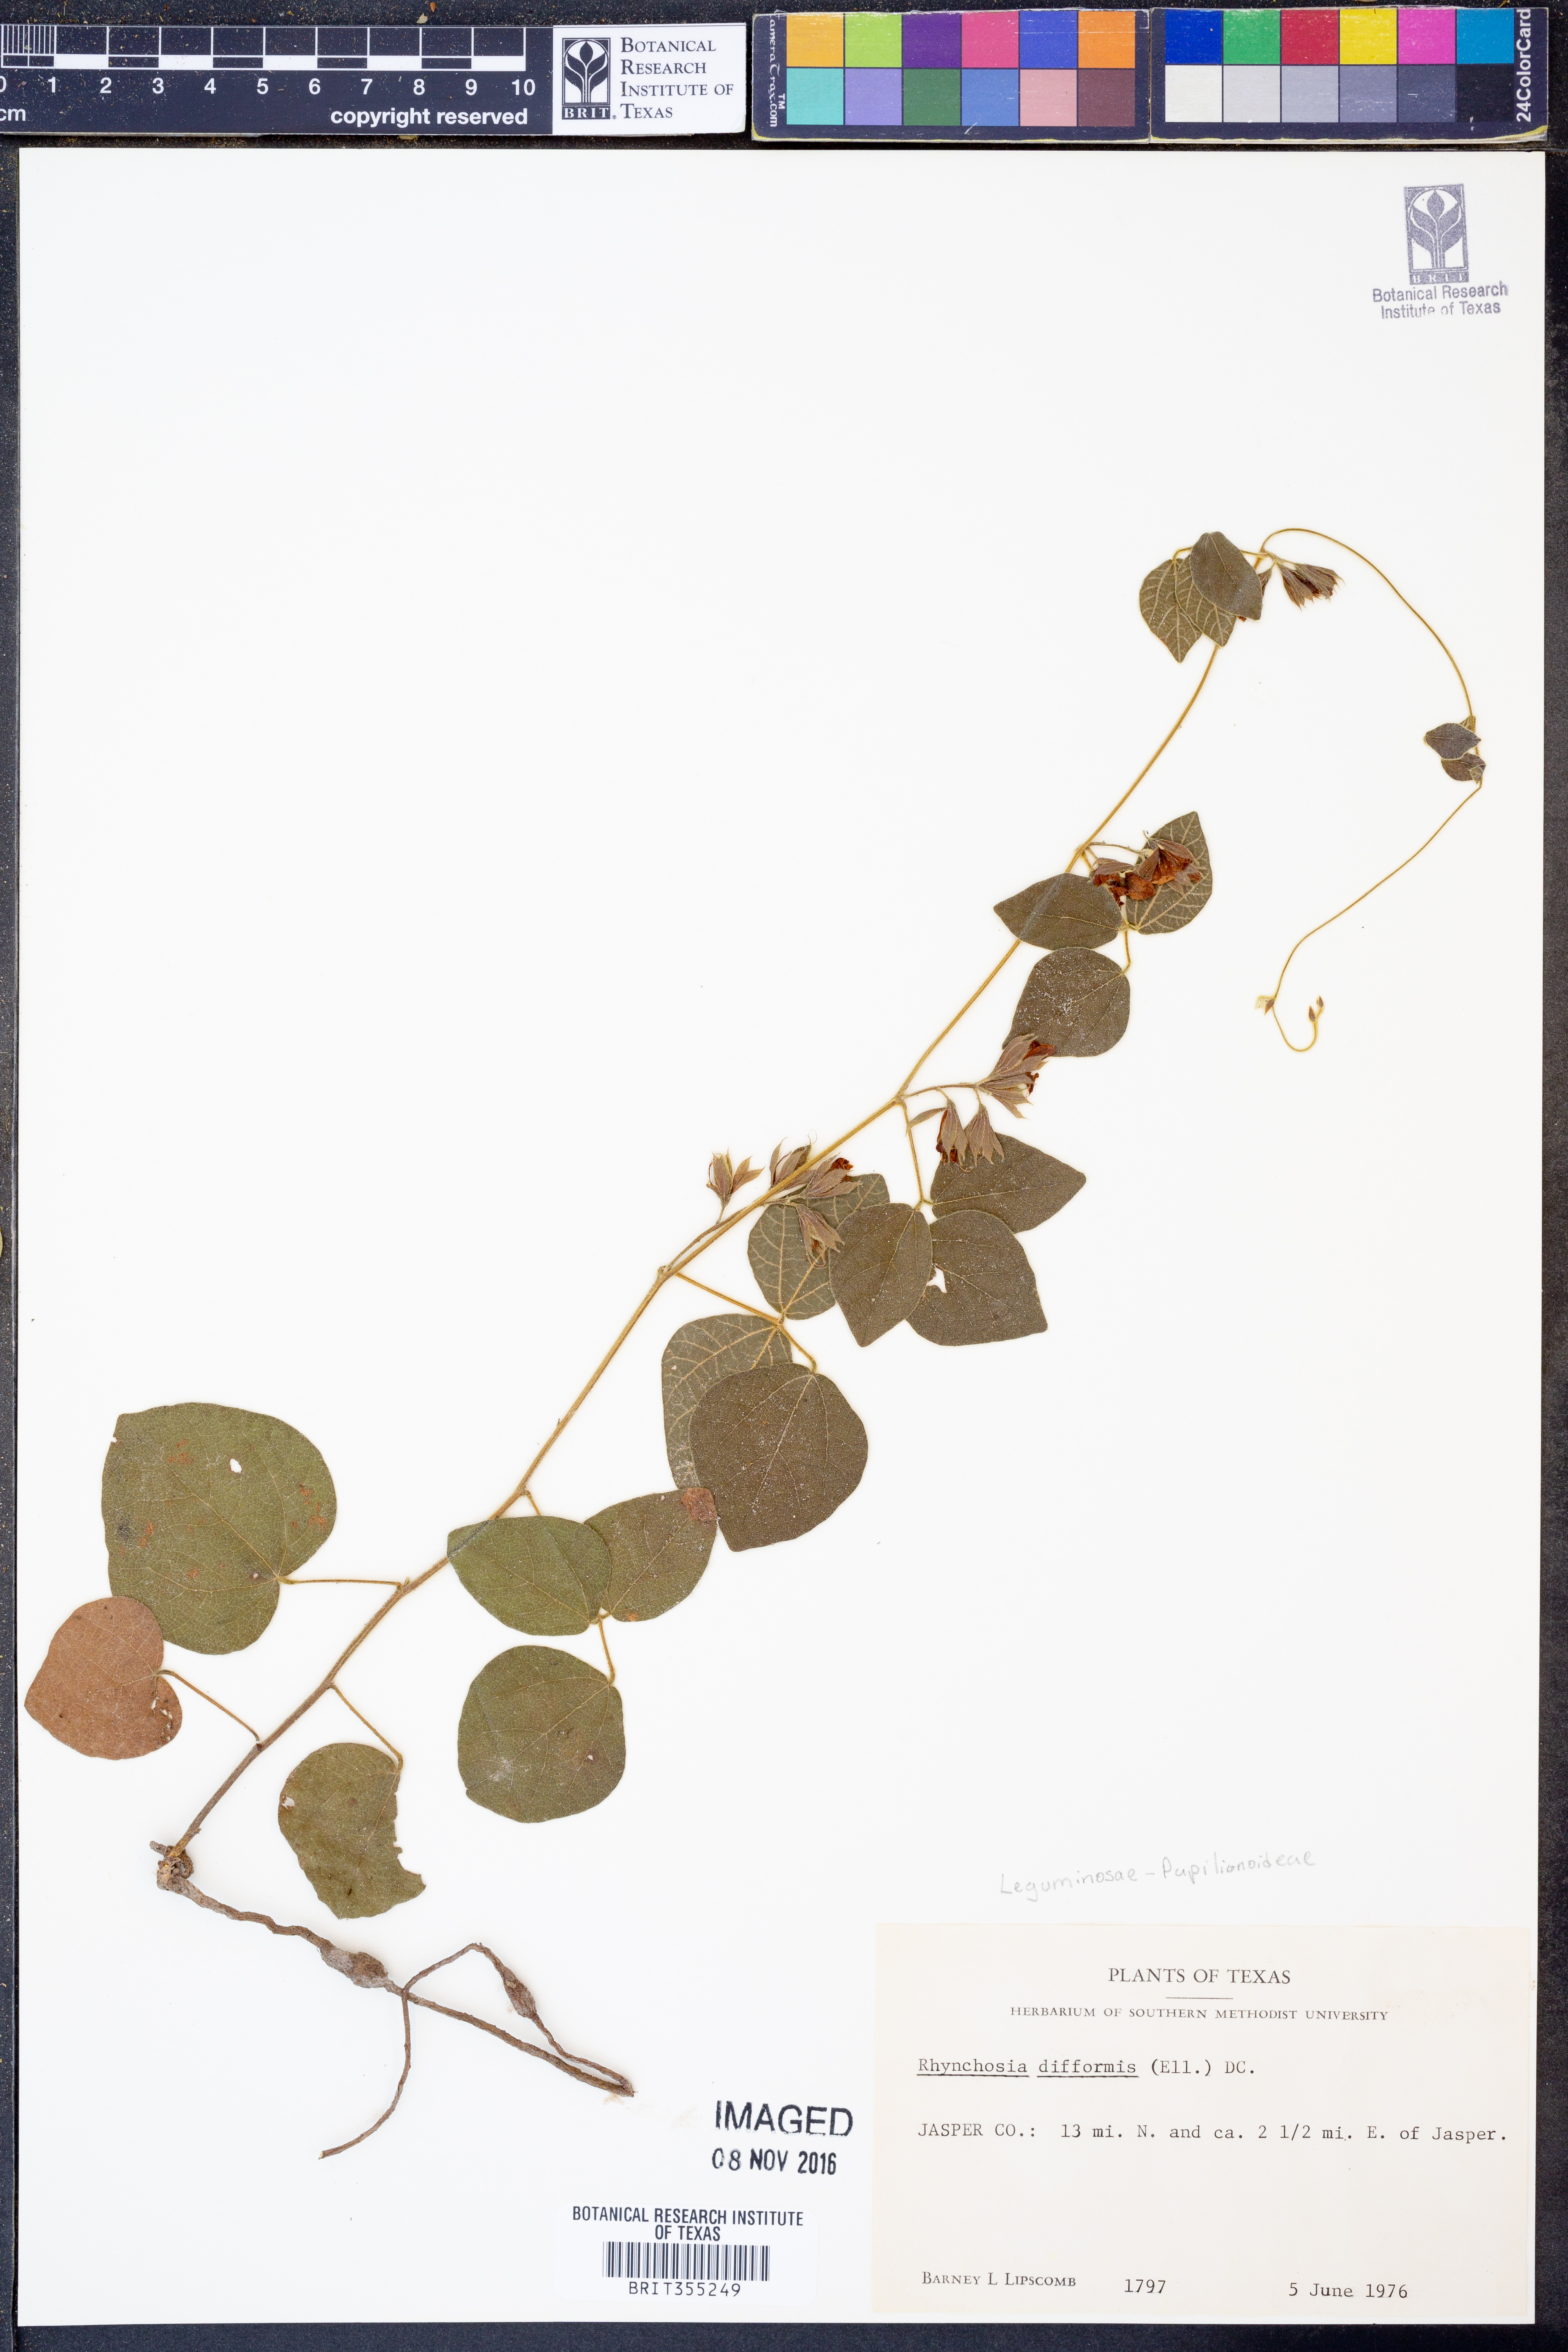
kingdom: Plantae
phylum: Tracheophyta
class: Magnoliopsida
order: Fabales
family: Fabaceae
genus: Rhynchosia
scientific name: Rhynchosia difformis
